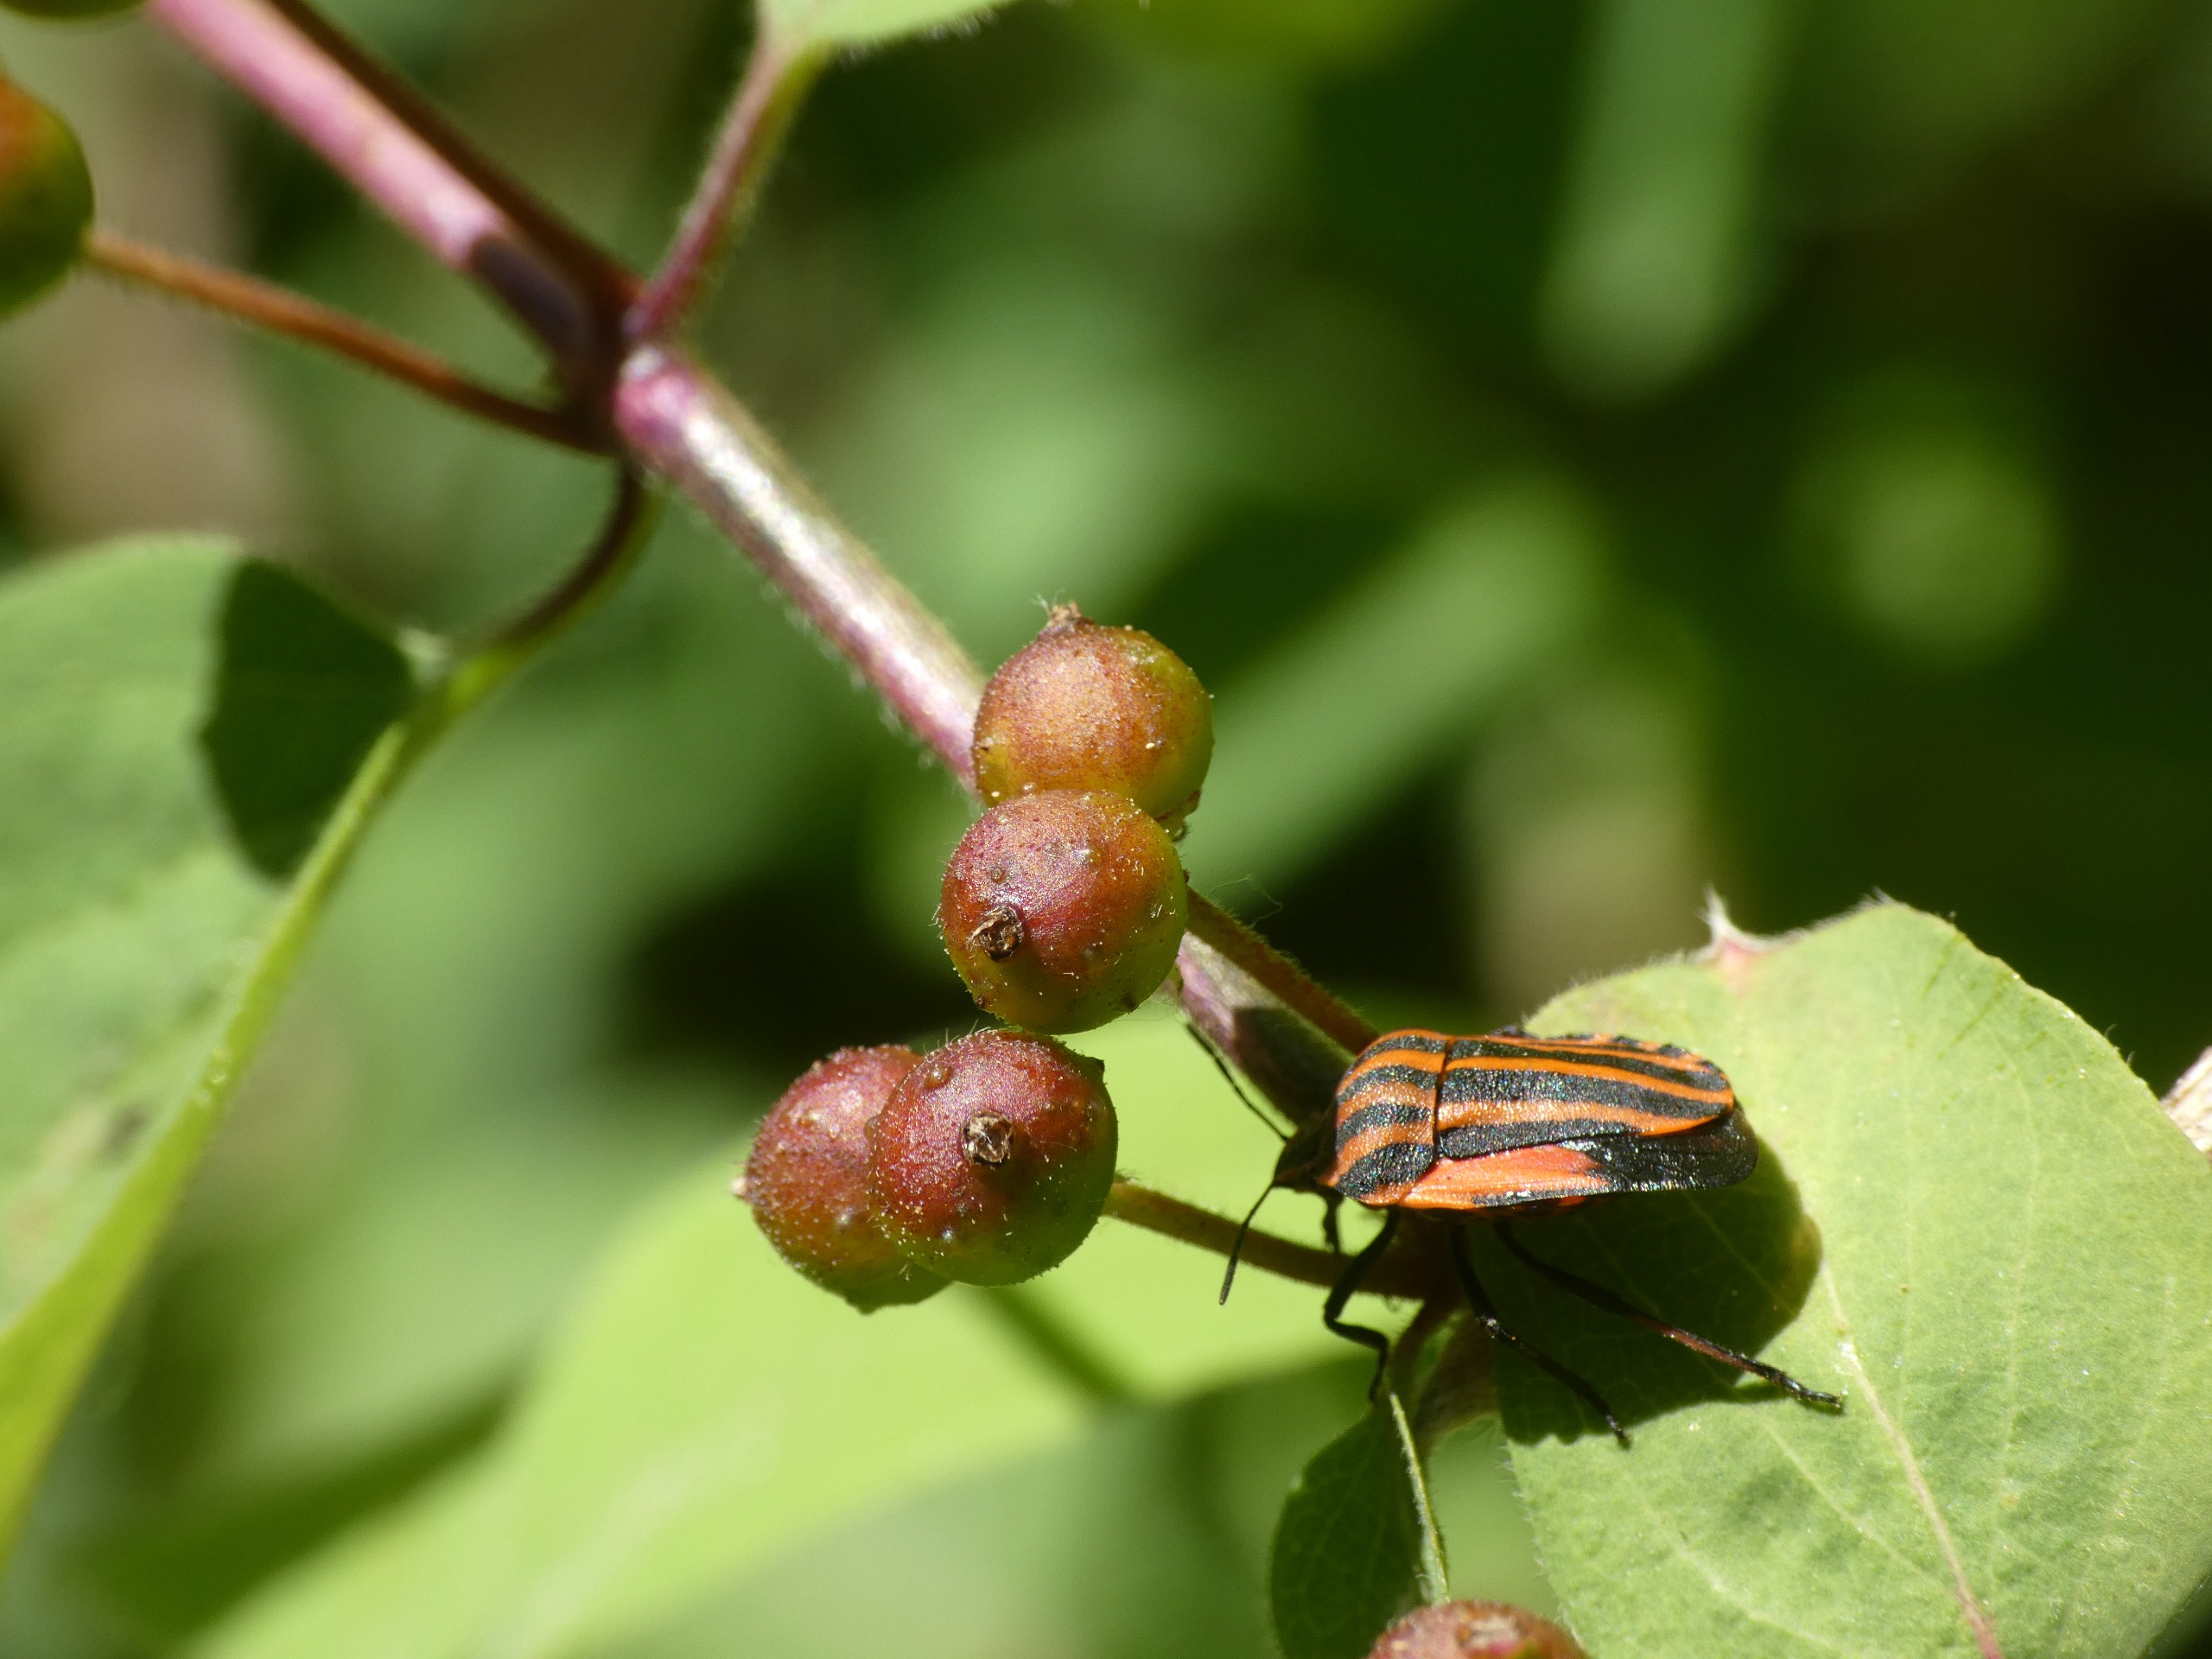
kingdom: Animalia
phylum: Arthropoda
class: Insecta
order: Hemiptera
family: Pentatomidae
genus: Graphosoma
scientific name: Graphosoma italicum
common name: Stribetæge
